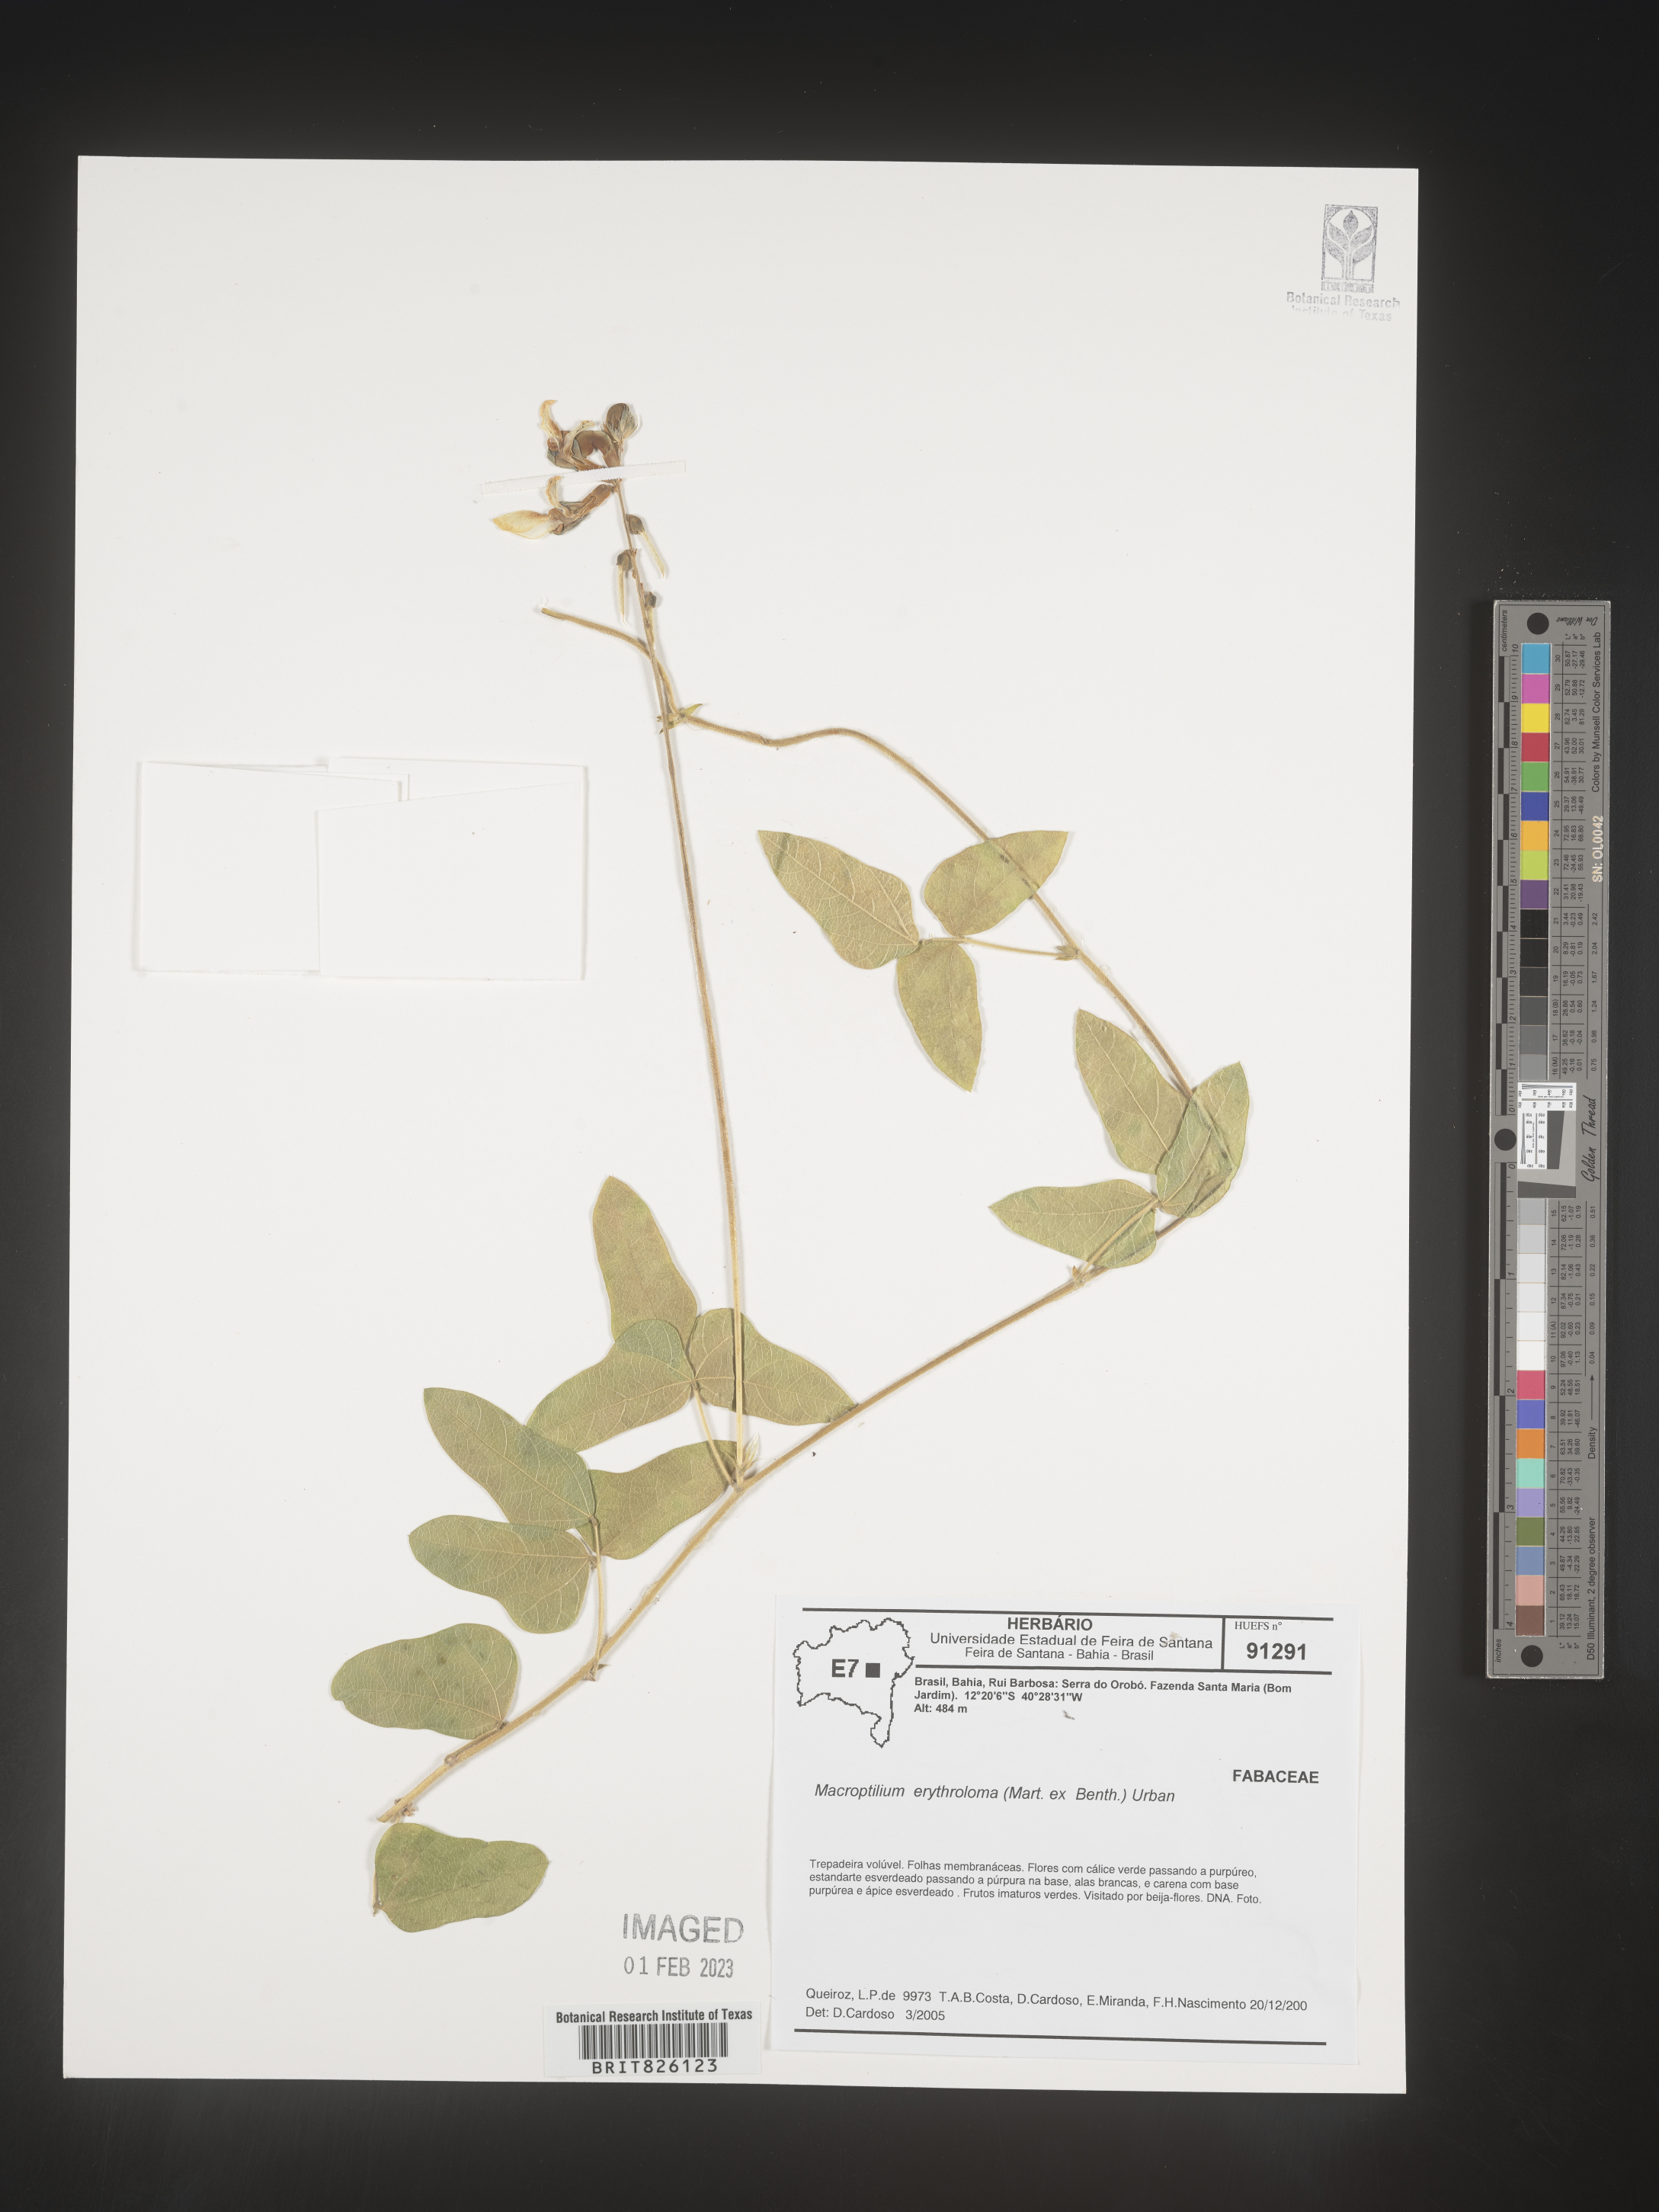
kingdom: Plantae
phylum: Tracheophyta
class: Magnoliopsida
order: Fabales
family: Fabaceae
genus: Macroptilium
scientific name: Macroptilium
